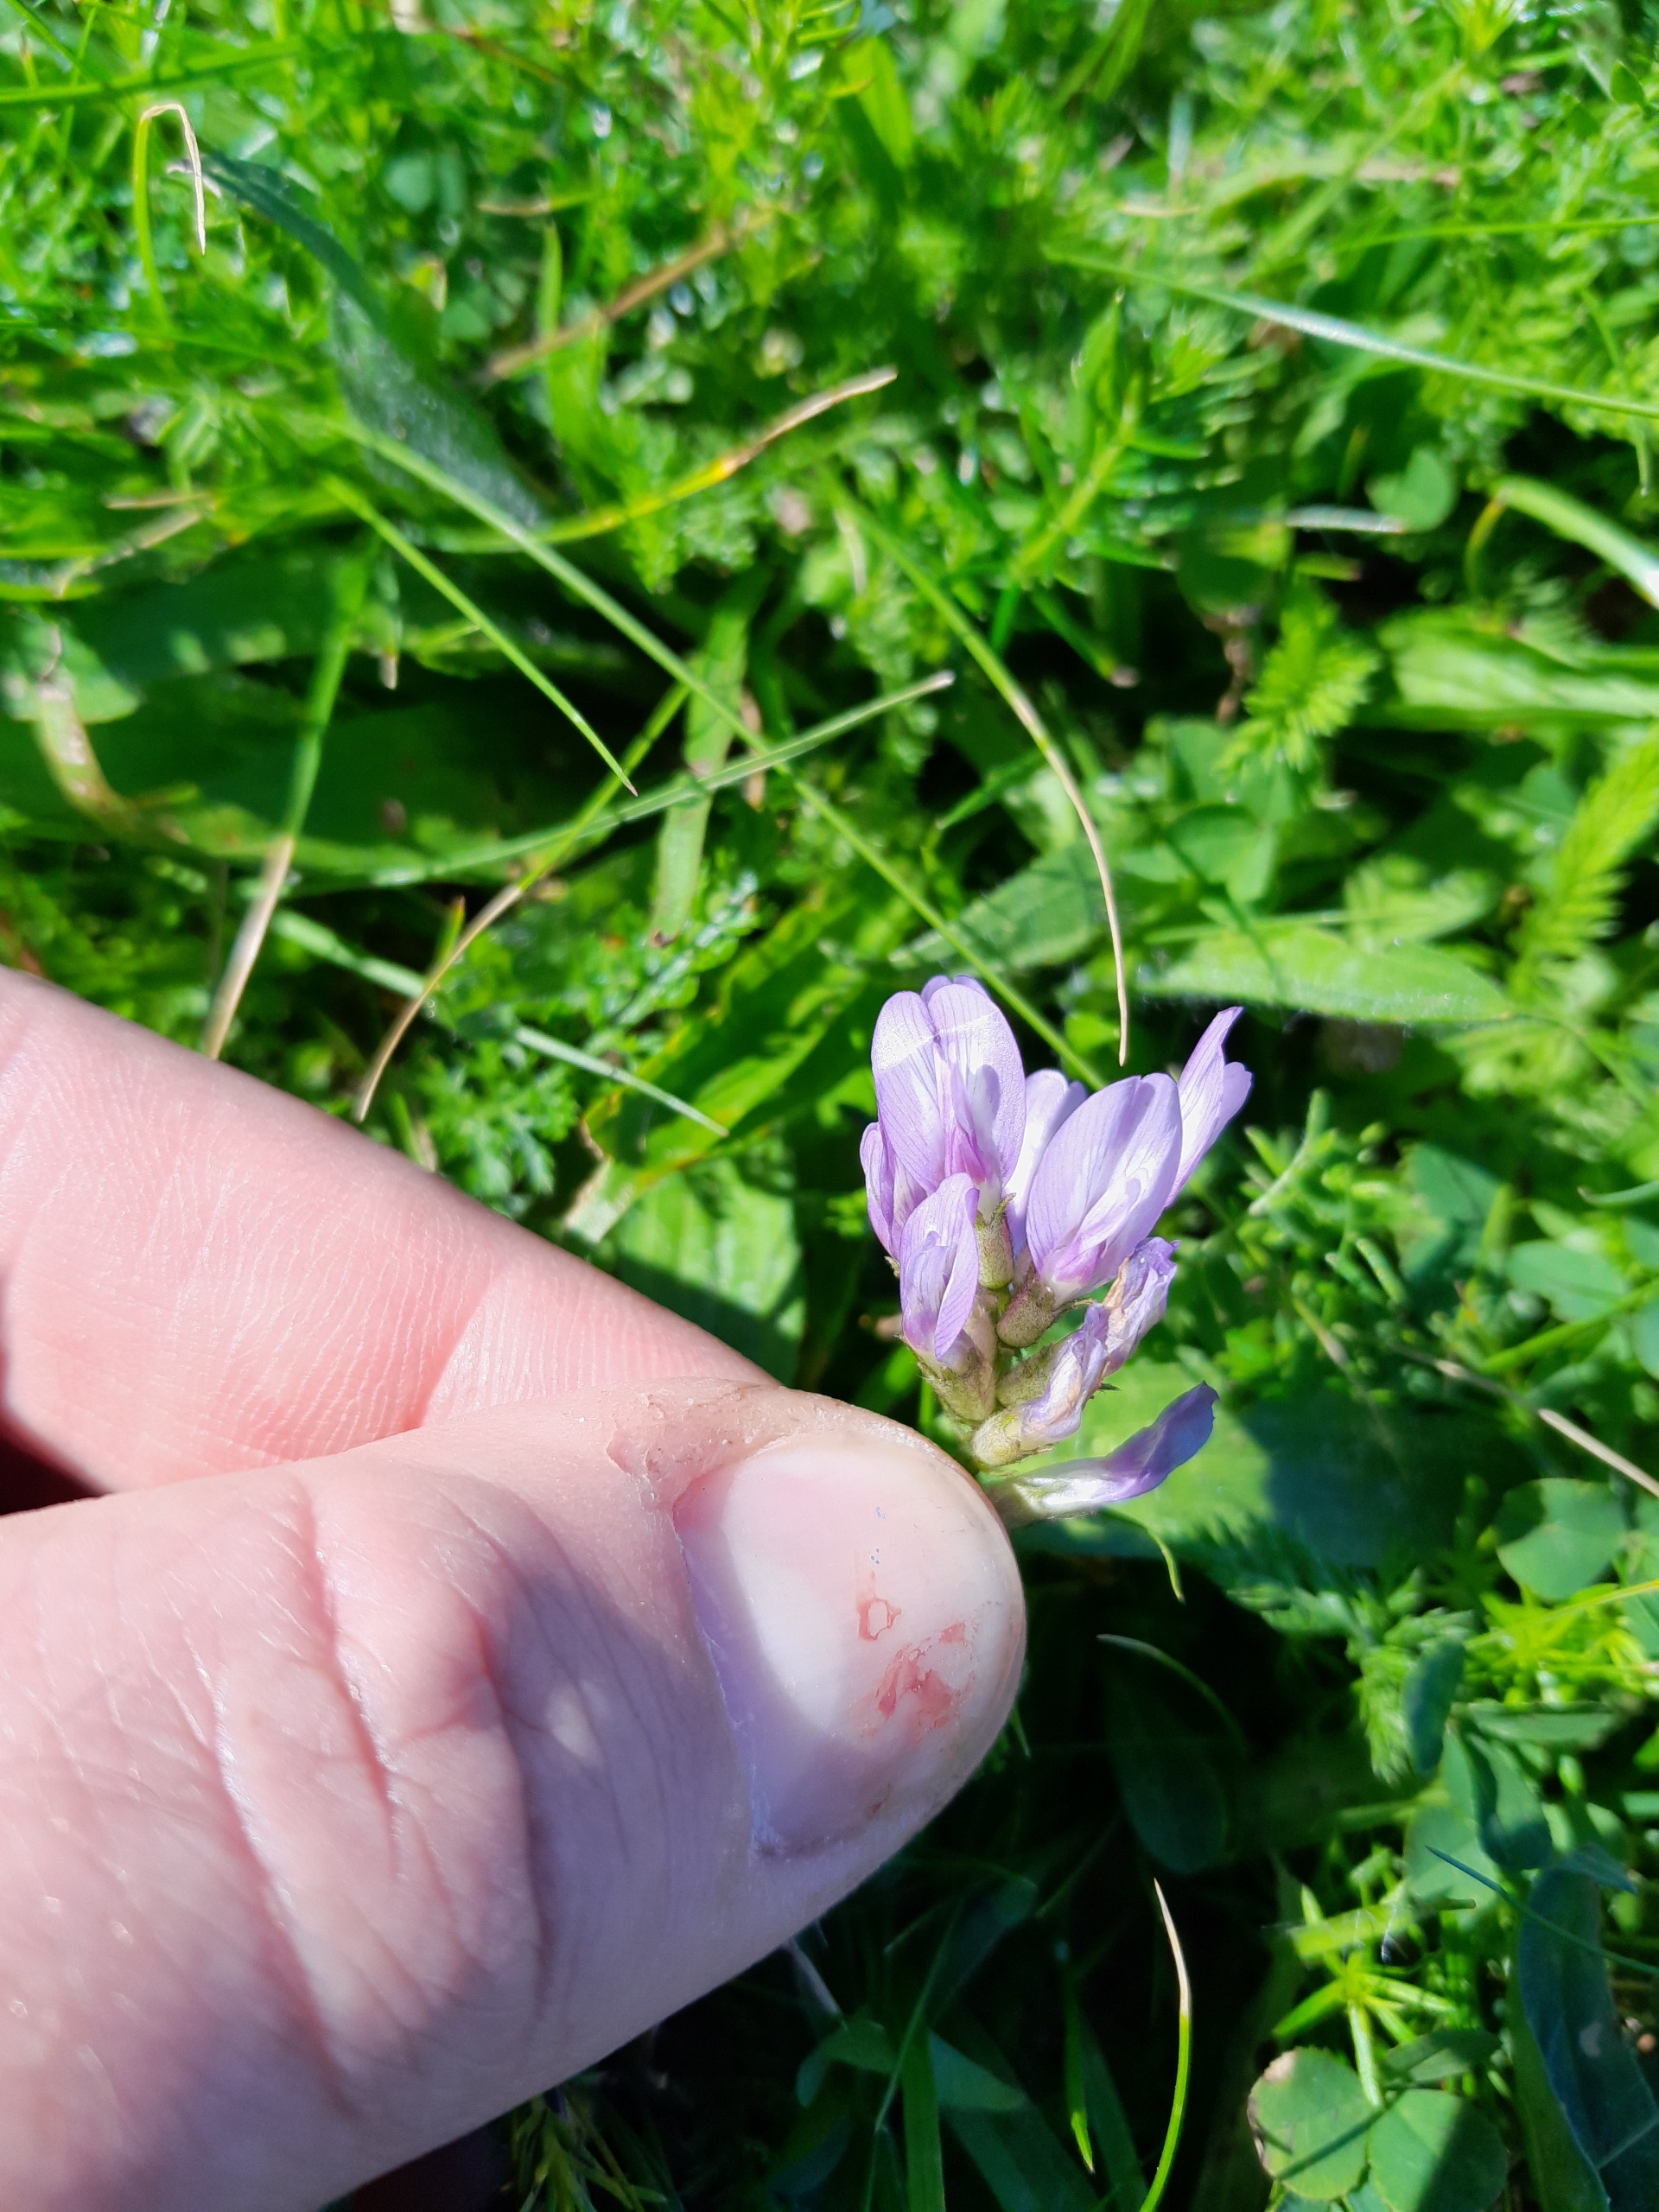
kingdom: Plantae
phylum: Tracheophyta
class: Magnoliopsida
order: Fabales
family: Fabaceae
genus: Astragalus
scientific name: Astragalus danicus
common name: Dansk astragel
